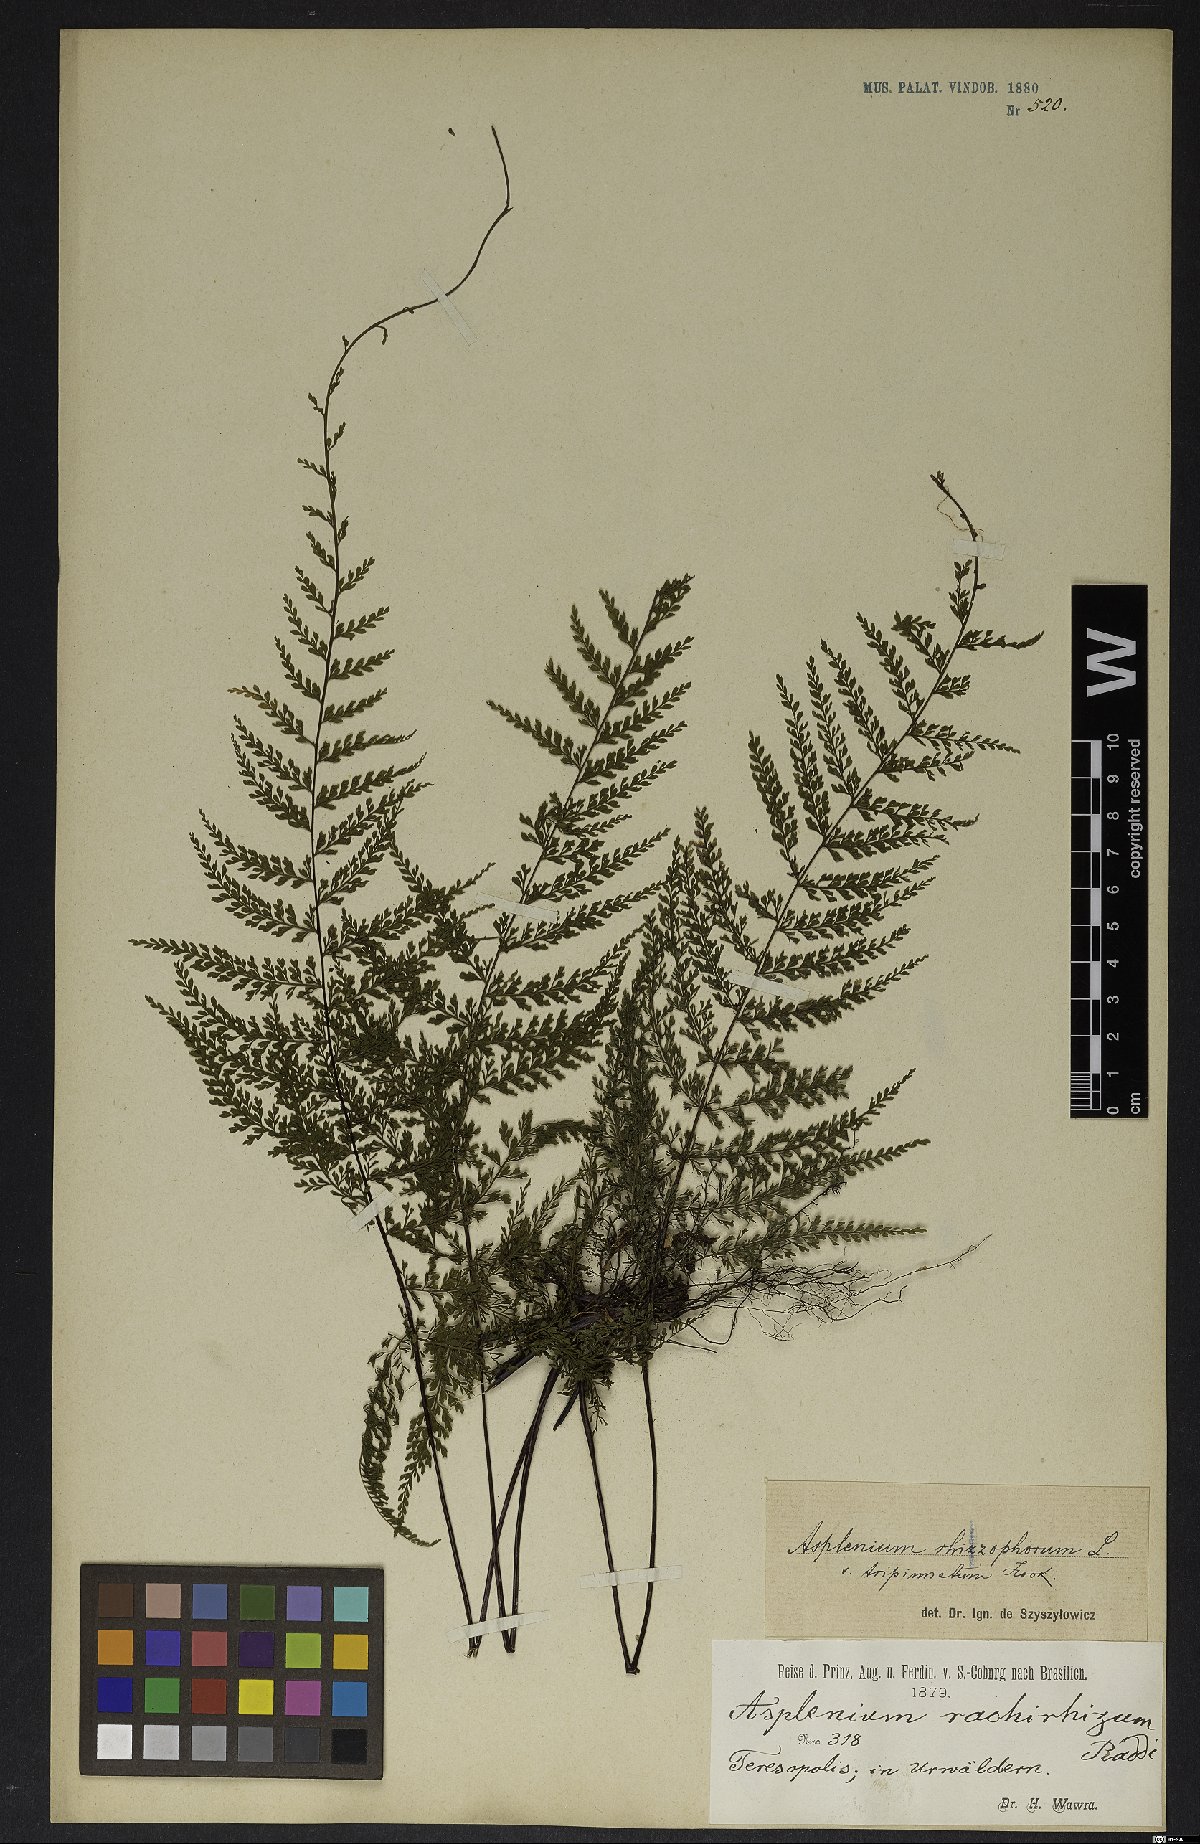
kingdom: Plantae
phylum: Tracheophyta
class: Polypodiopsida
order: Polypodiales
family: Aspleniaceae
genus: Asplenium
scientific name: Asplenium radicans
